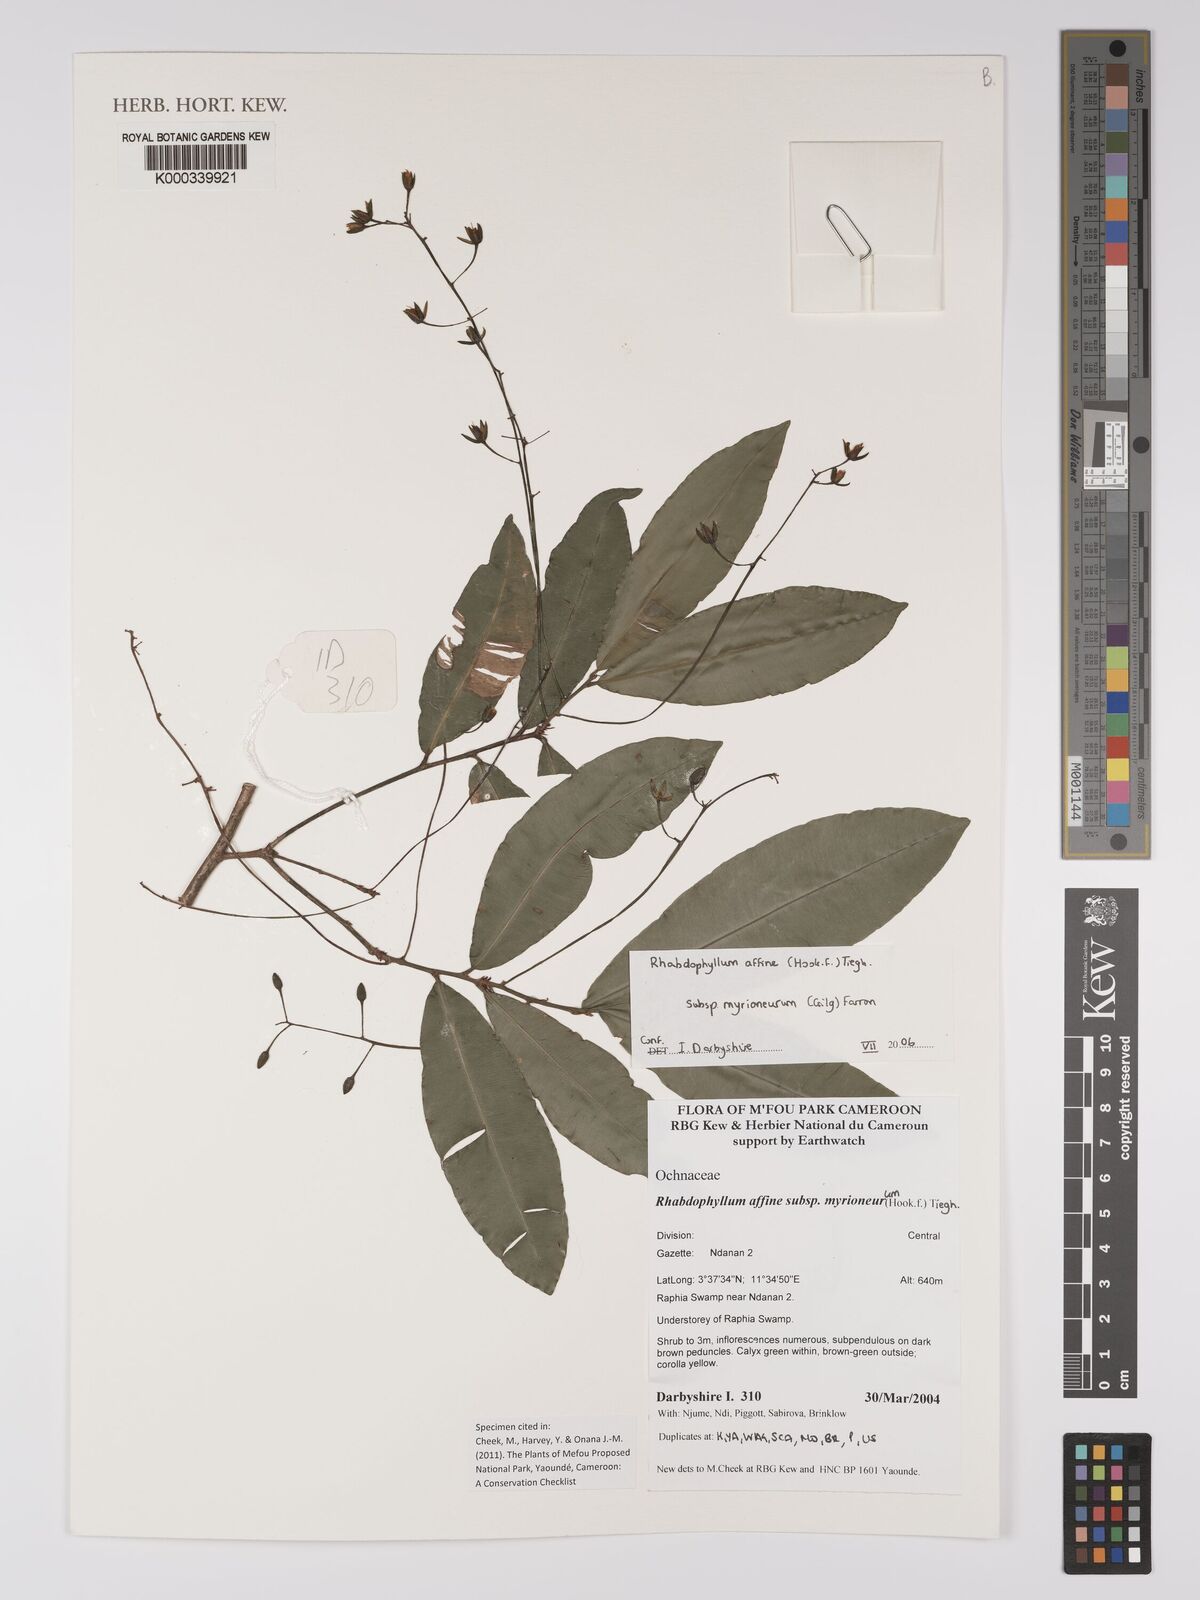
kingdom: Plantae
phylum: Tracheophyta
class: Magnoliopsida
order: Malpighiales
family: Ochnaceae
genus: Rhabdophyllum
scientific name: Rhabdophyllum affine
